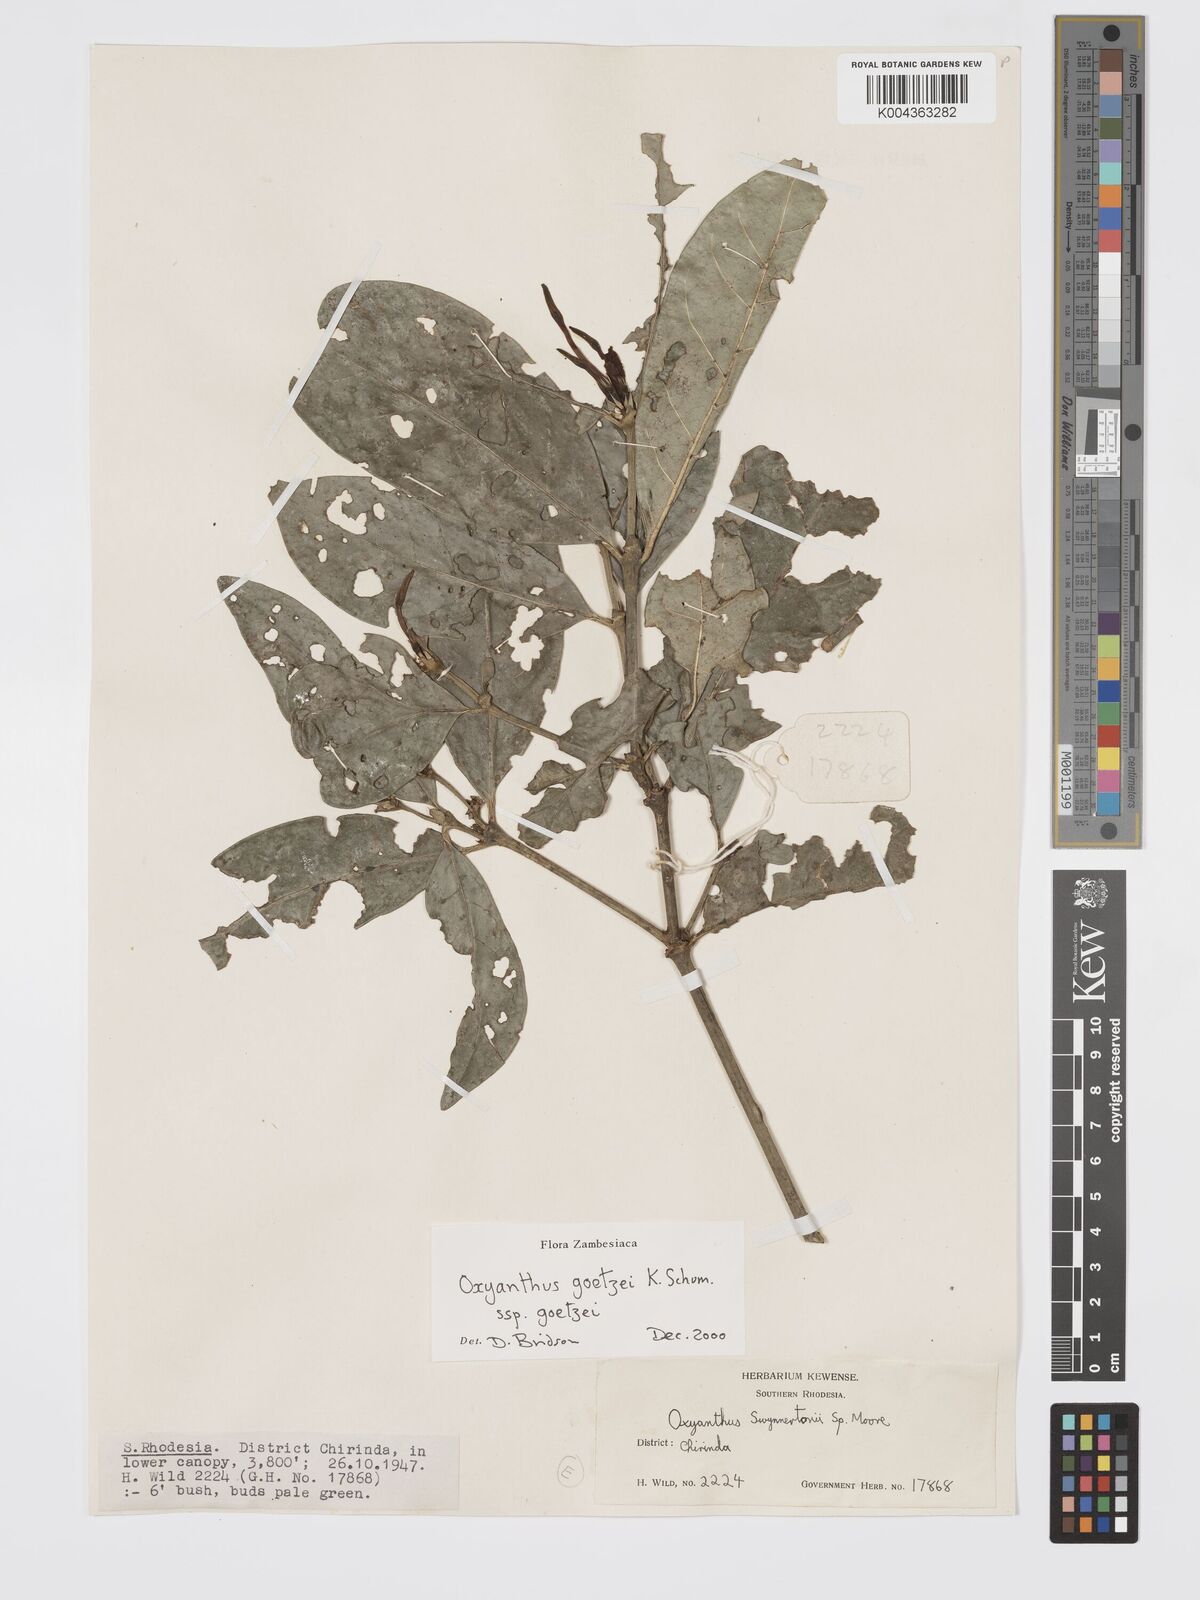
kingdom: Plantae
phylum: Tracheophyta
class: Magnoliopsida
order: Gentianales
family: Rubiaceae
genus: Oxyanthus
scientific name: Oxyanthus goetzei
